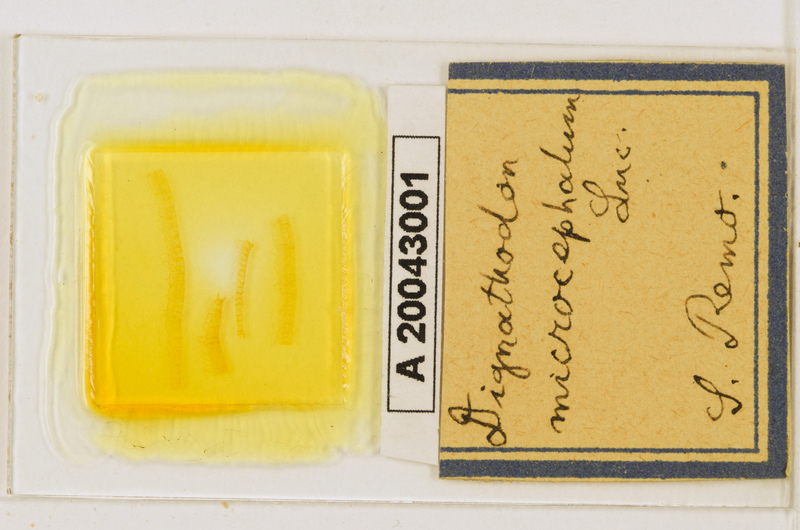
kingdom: Animalia
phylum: Arthropoda
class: Chilopoda
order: Geophilomorpha
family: Dignathodontidae
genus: Dignathodon
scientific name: Dignathodon microcephalus
